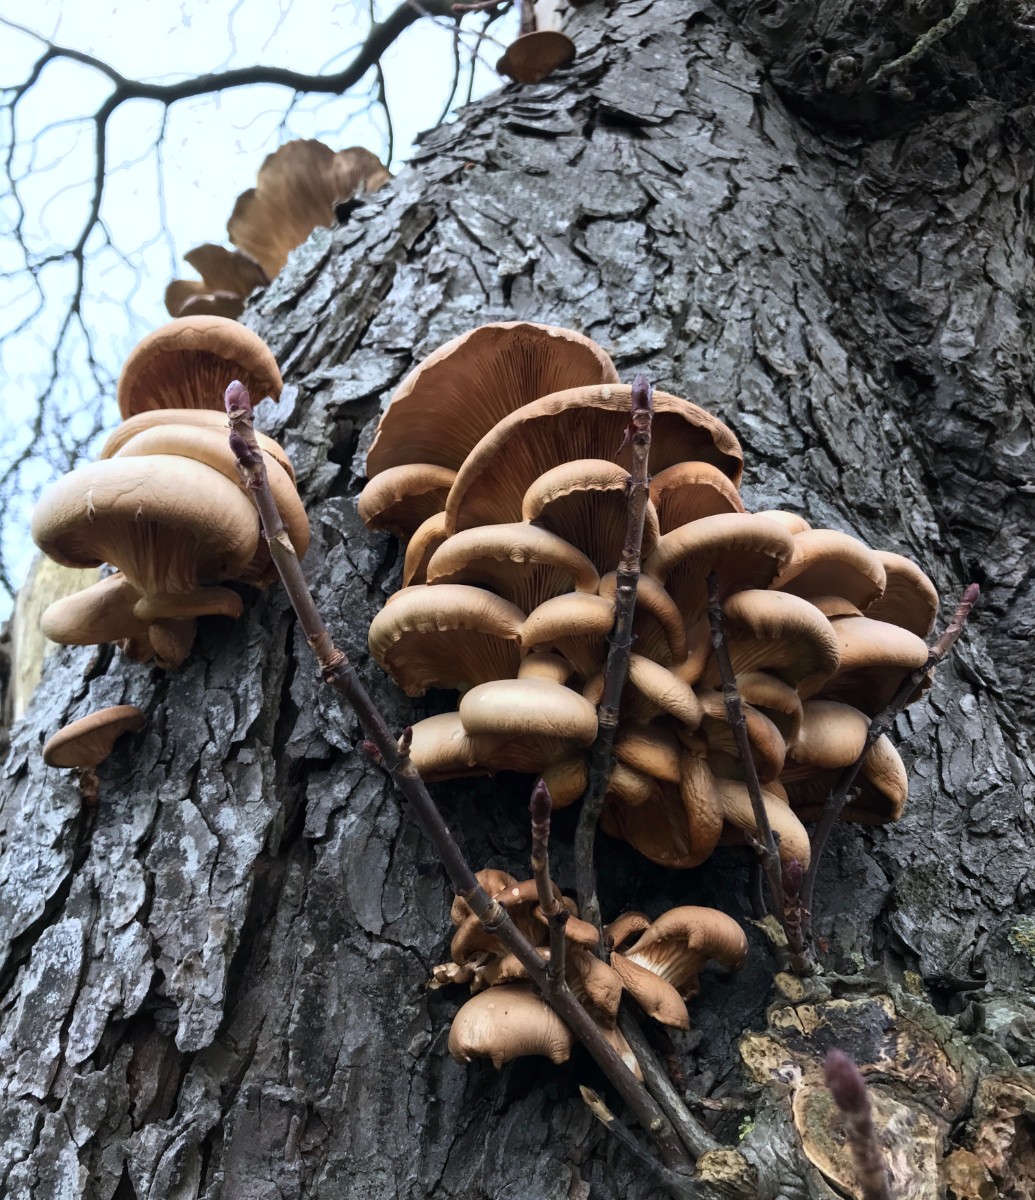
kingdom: Fungi
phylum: Basidiomycota
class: Agaricomycetes
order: Agaricales
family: Pleurotaceae
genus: Pleurotus
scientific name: Pleurotus ostreatus
